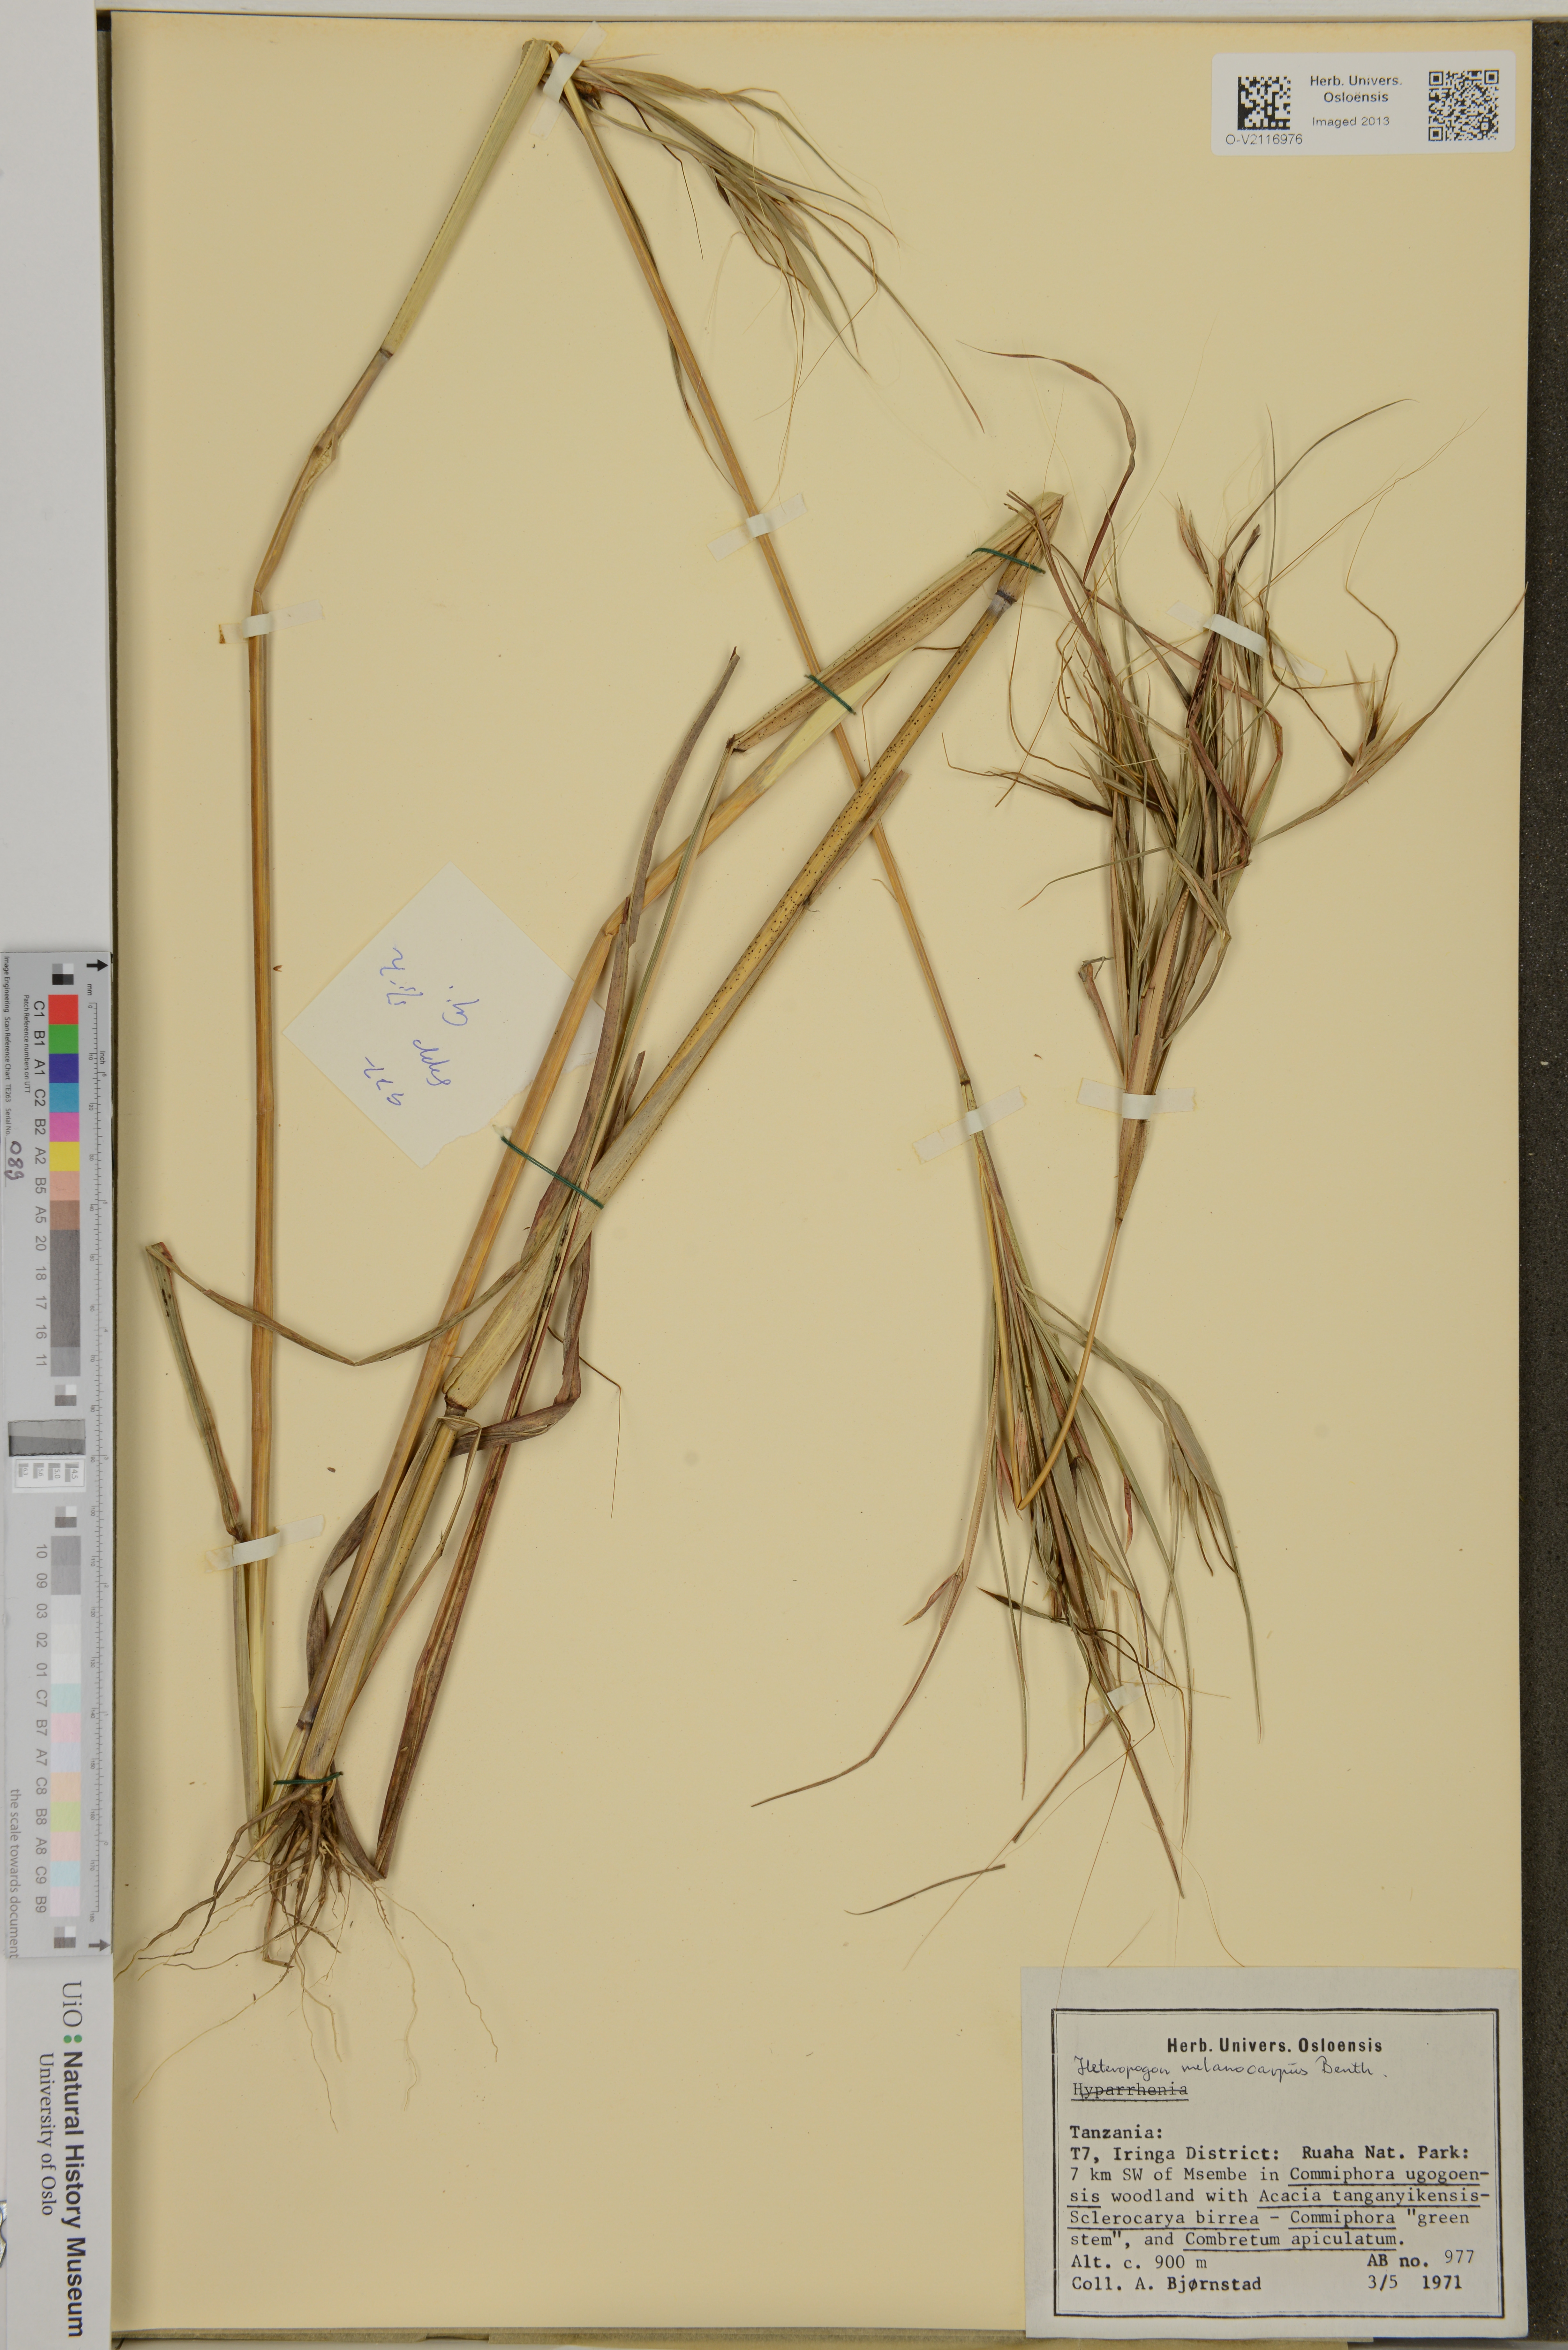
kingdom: Plantae
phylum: Tracheophyta
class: Liliopsida
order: Poales
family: Poaceae
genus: Heteropogon
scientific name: Heteropogon melanocarpus
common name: Sweet tanglehead
